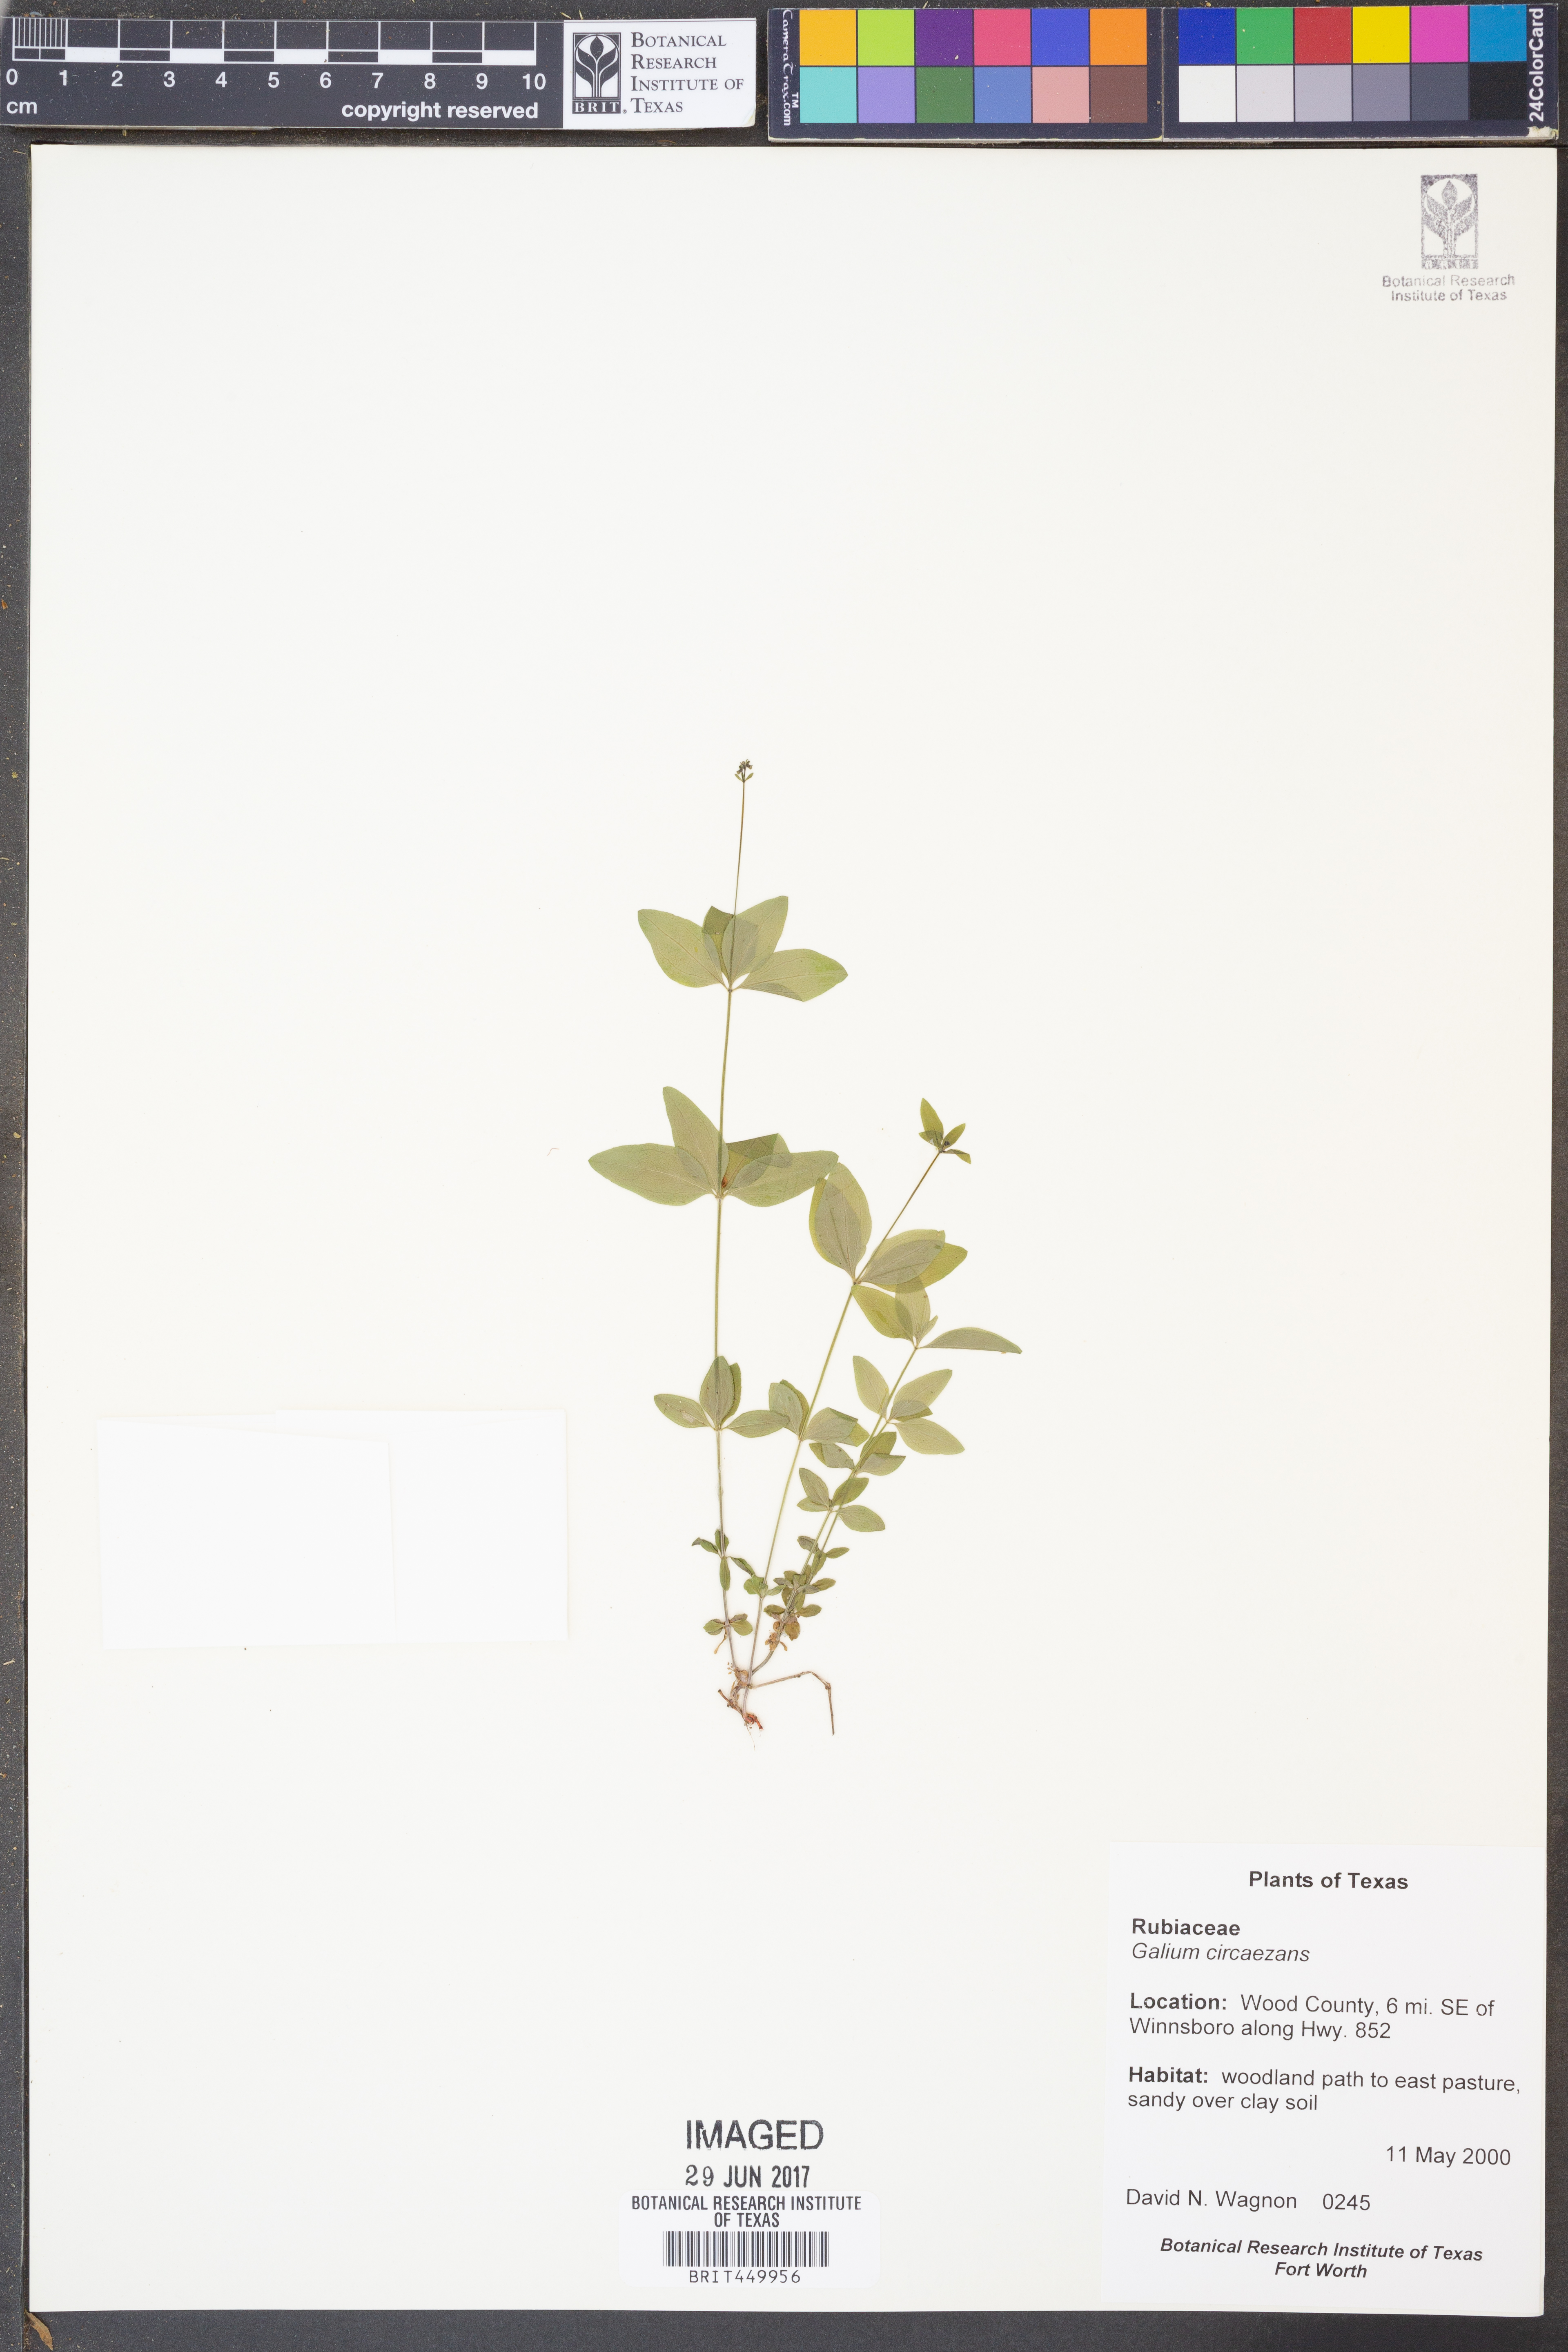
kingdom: Plantae
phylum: Tracheophyta
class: Magnoliopsida
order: Gentianales
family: Rubiaceae
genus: Galium
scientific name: Galium circaezans
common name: Forest bedstraw
